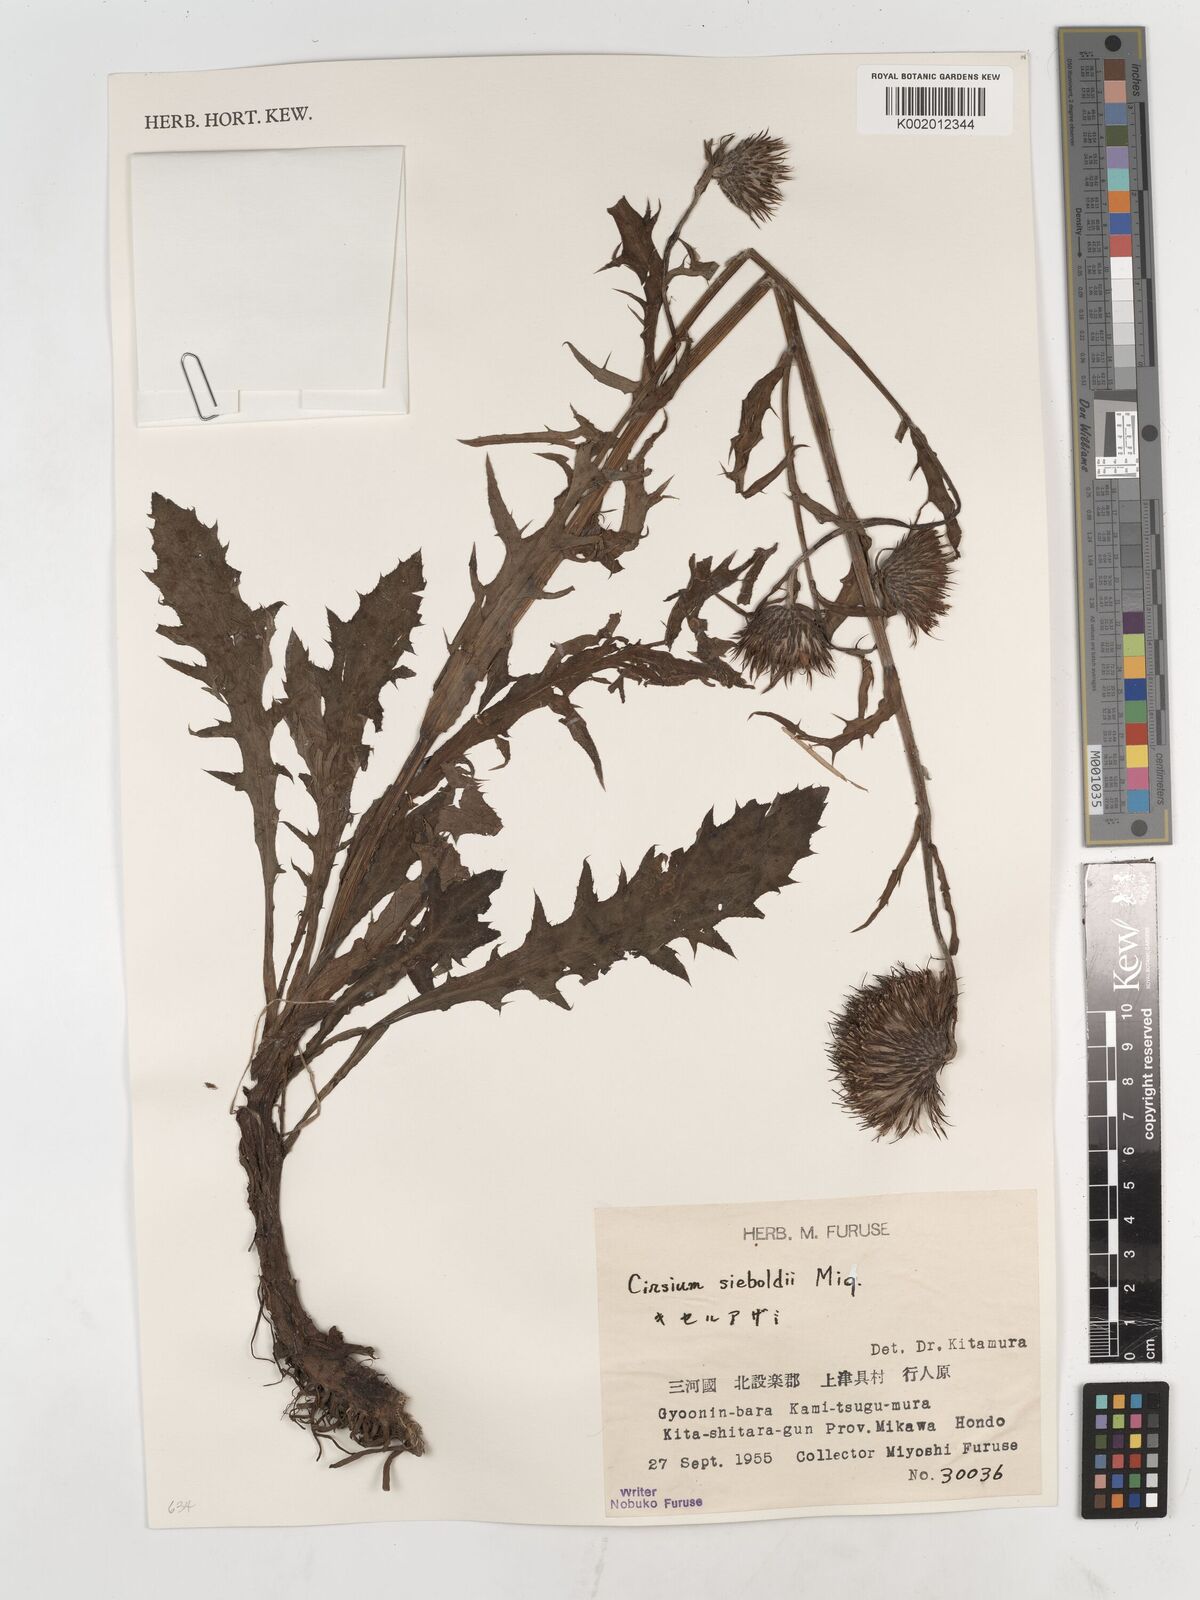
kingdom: Plantae
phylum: Tracheophyta
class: Magnoliopsida
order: Asterales
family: Asteraceae
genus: Cirsium
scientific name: Cirsium sieboldii
